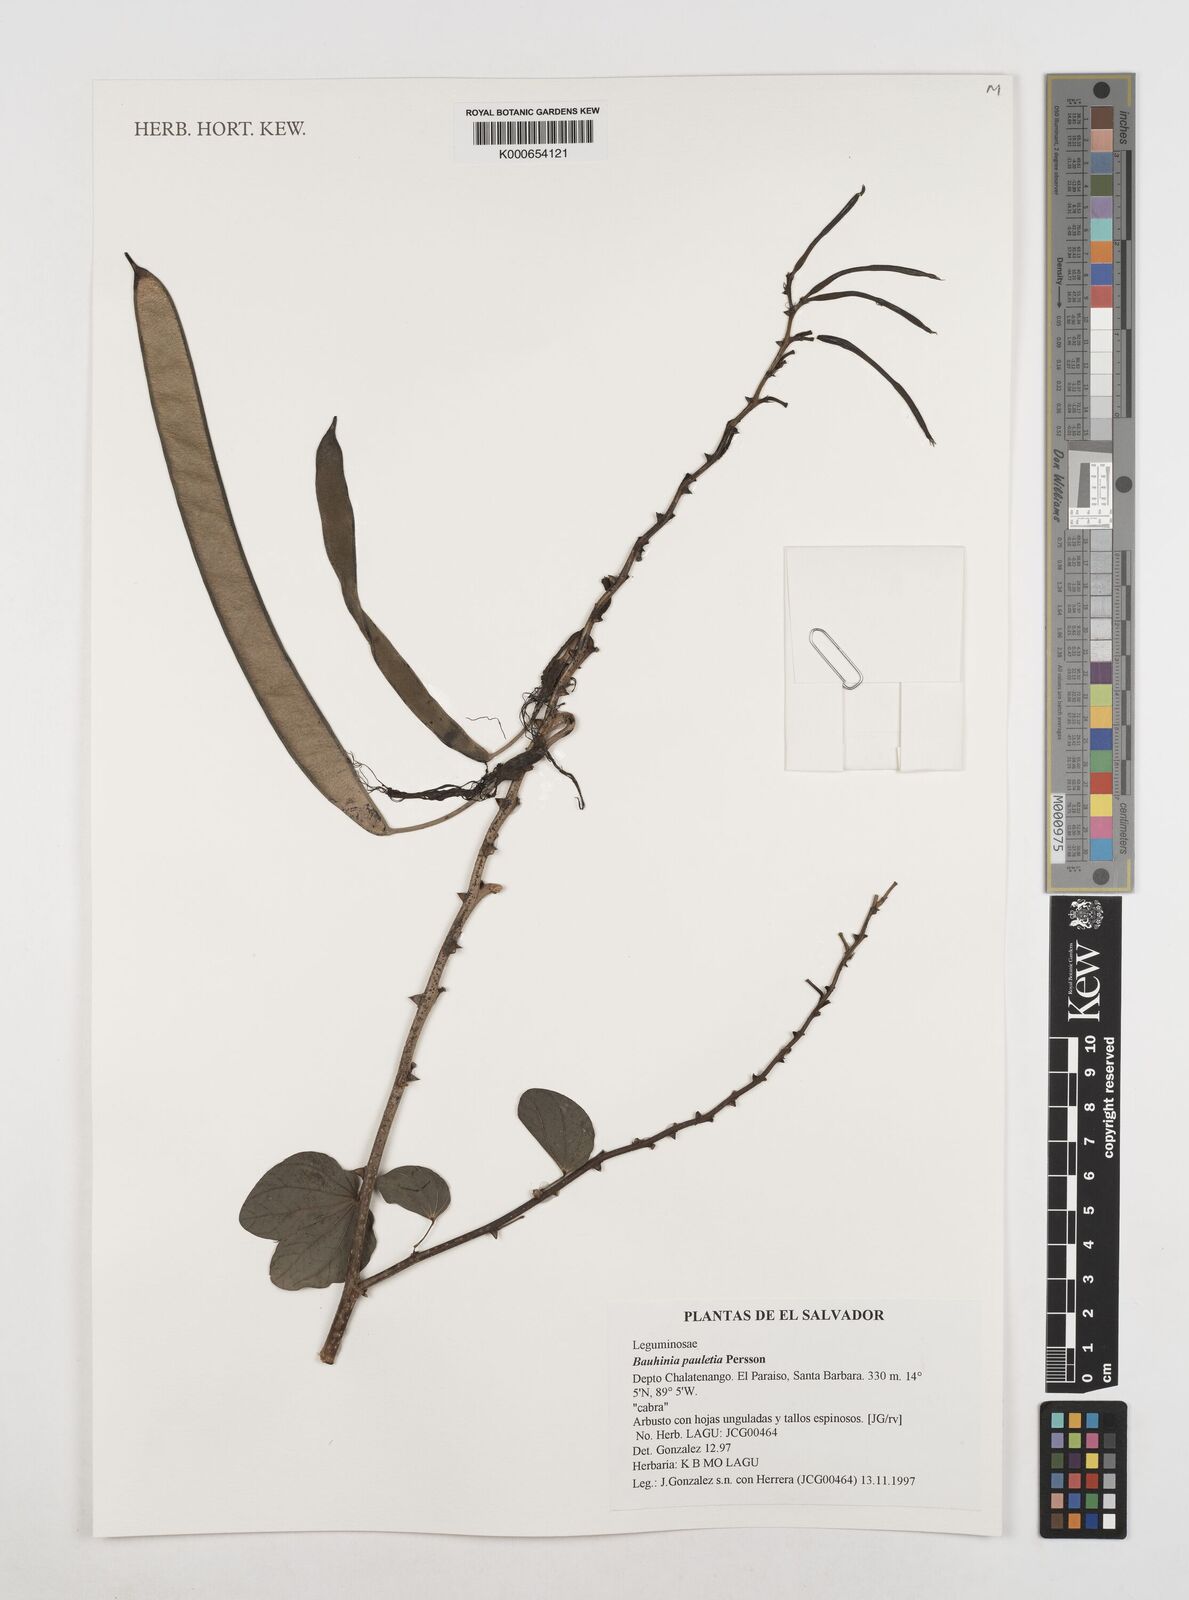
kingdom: Plantae
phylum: Tracheophyta
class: Magnoliopsida
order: Fabales
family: Fabaceae
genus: Bauhinia
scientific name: Bauhinia pauletia
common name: Railway-fence bauhinia
